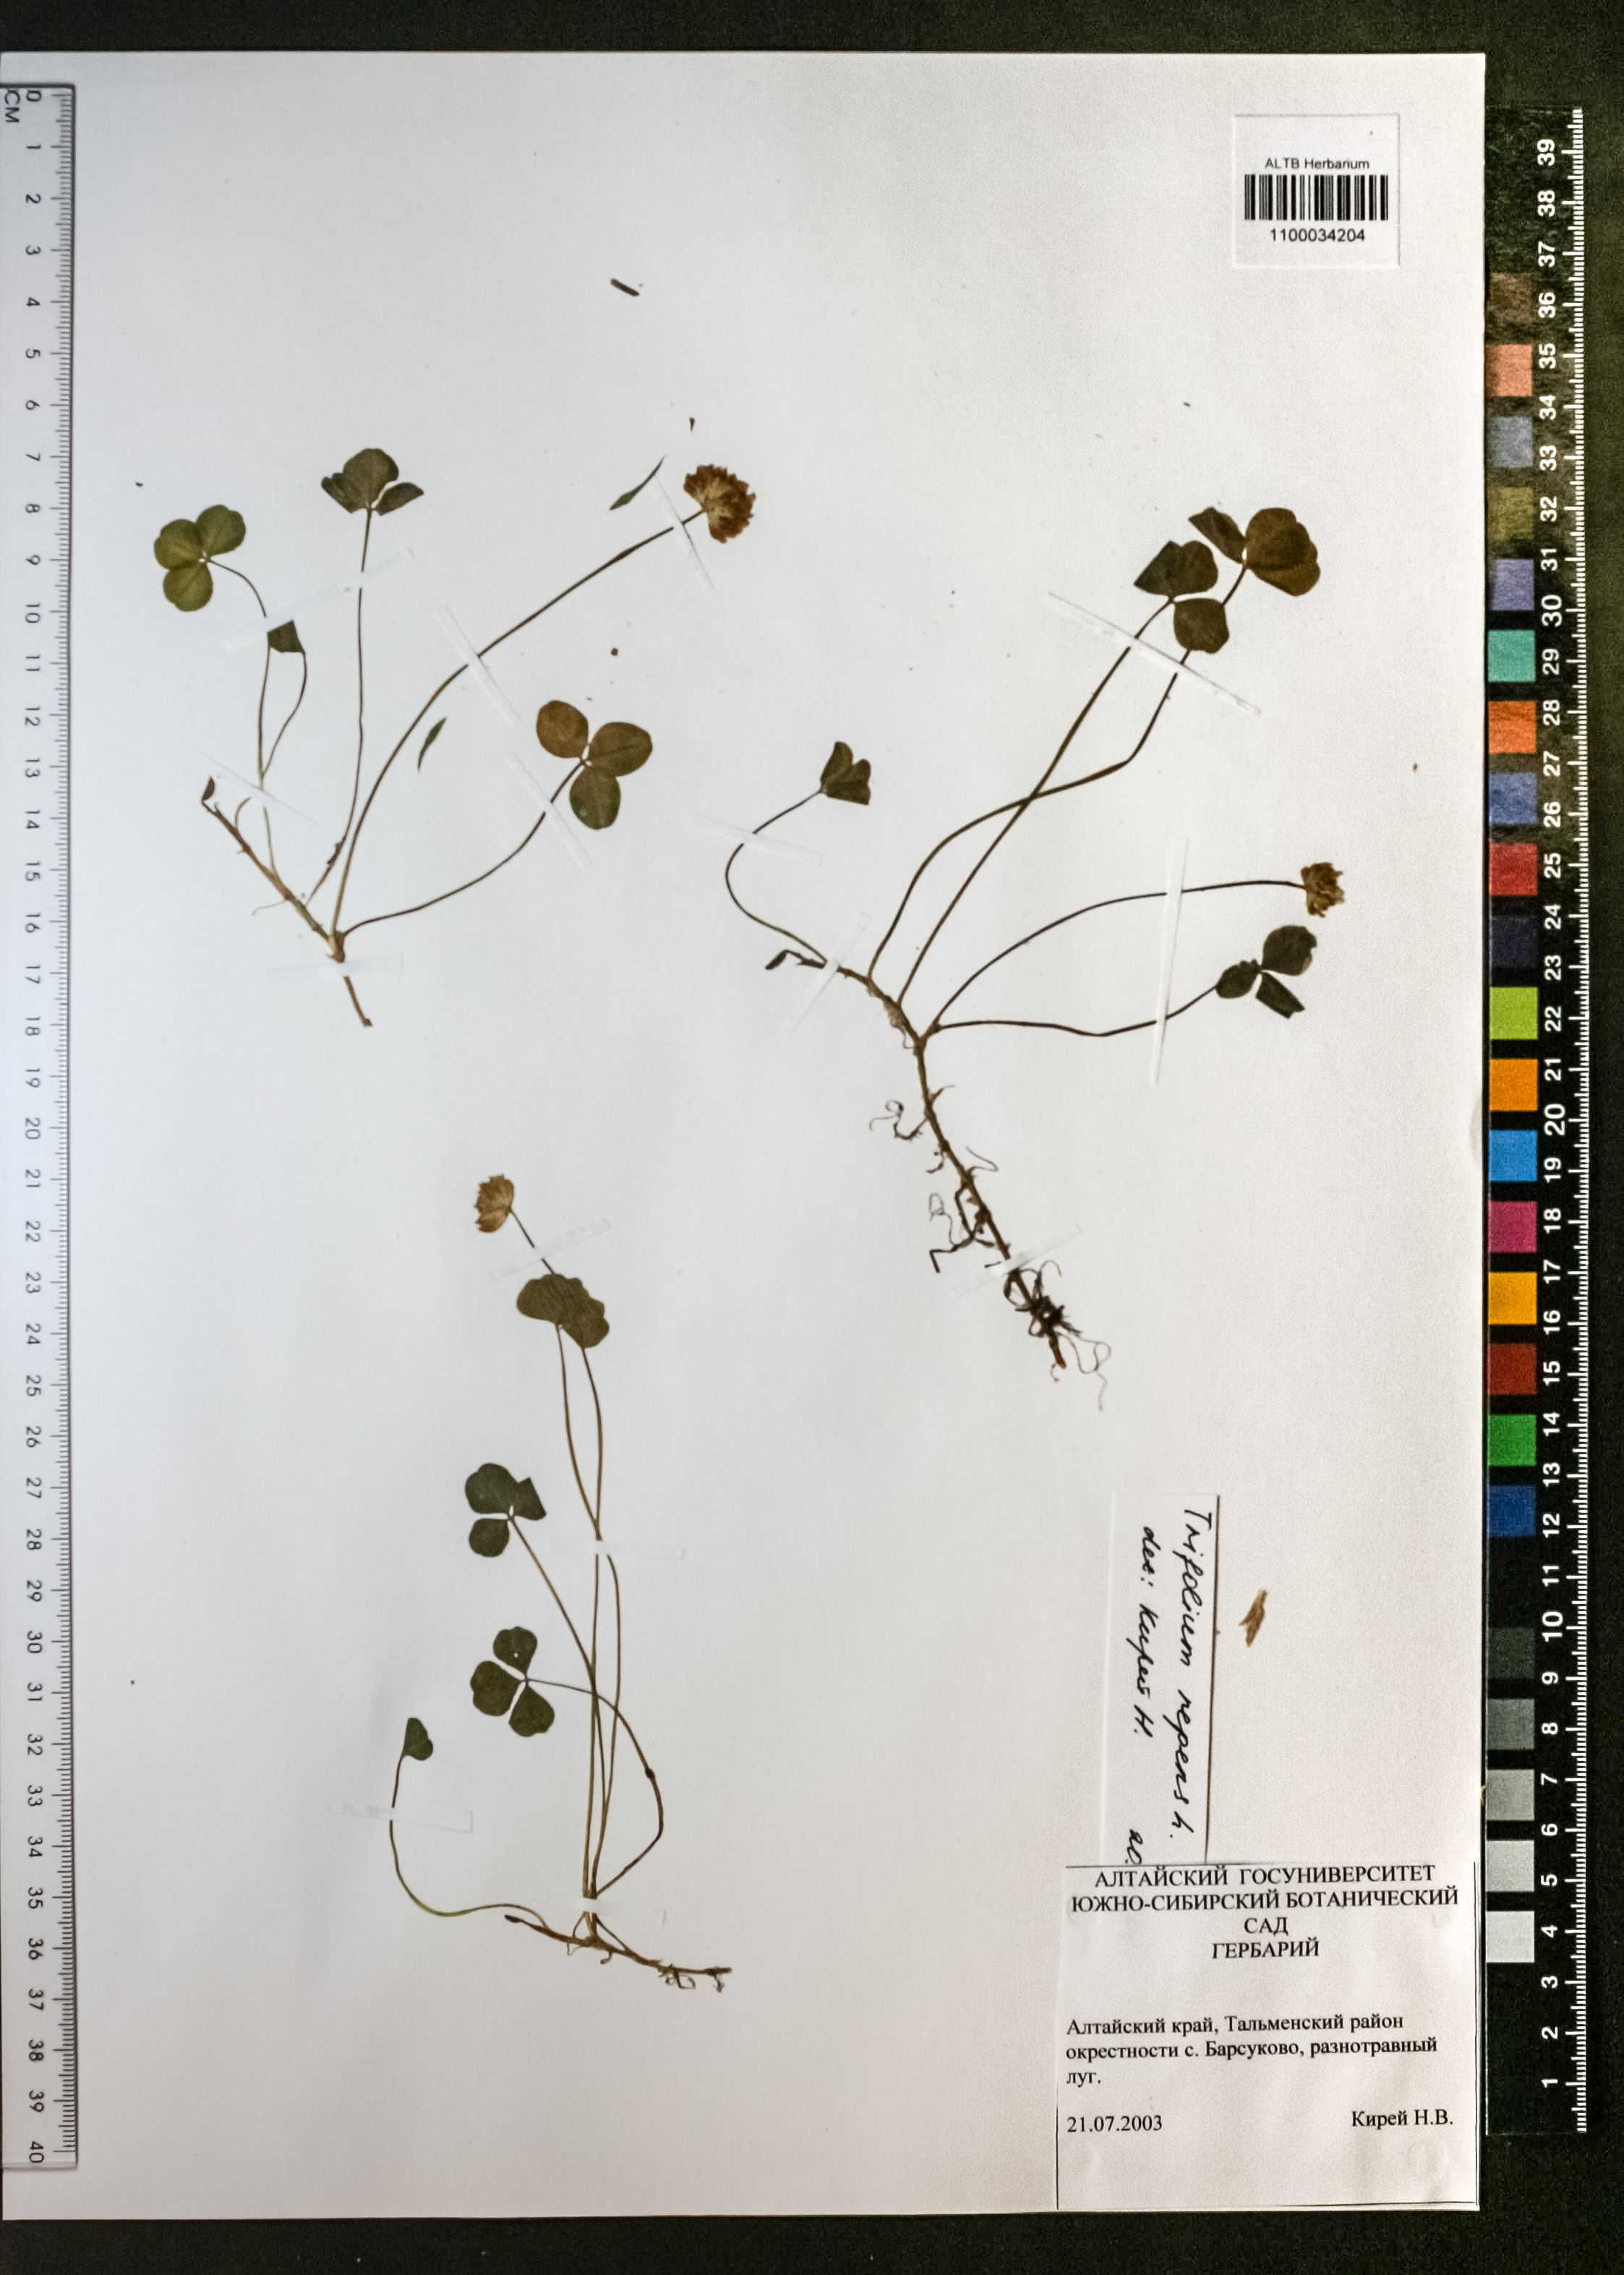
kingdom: Plantae
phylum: Tracheophyta
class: Magnoliopsida
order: Fabales
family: Fabaceae
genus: Trifolium
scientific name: Trifolium repens
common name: White clover
